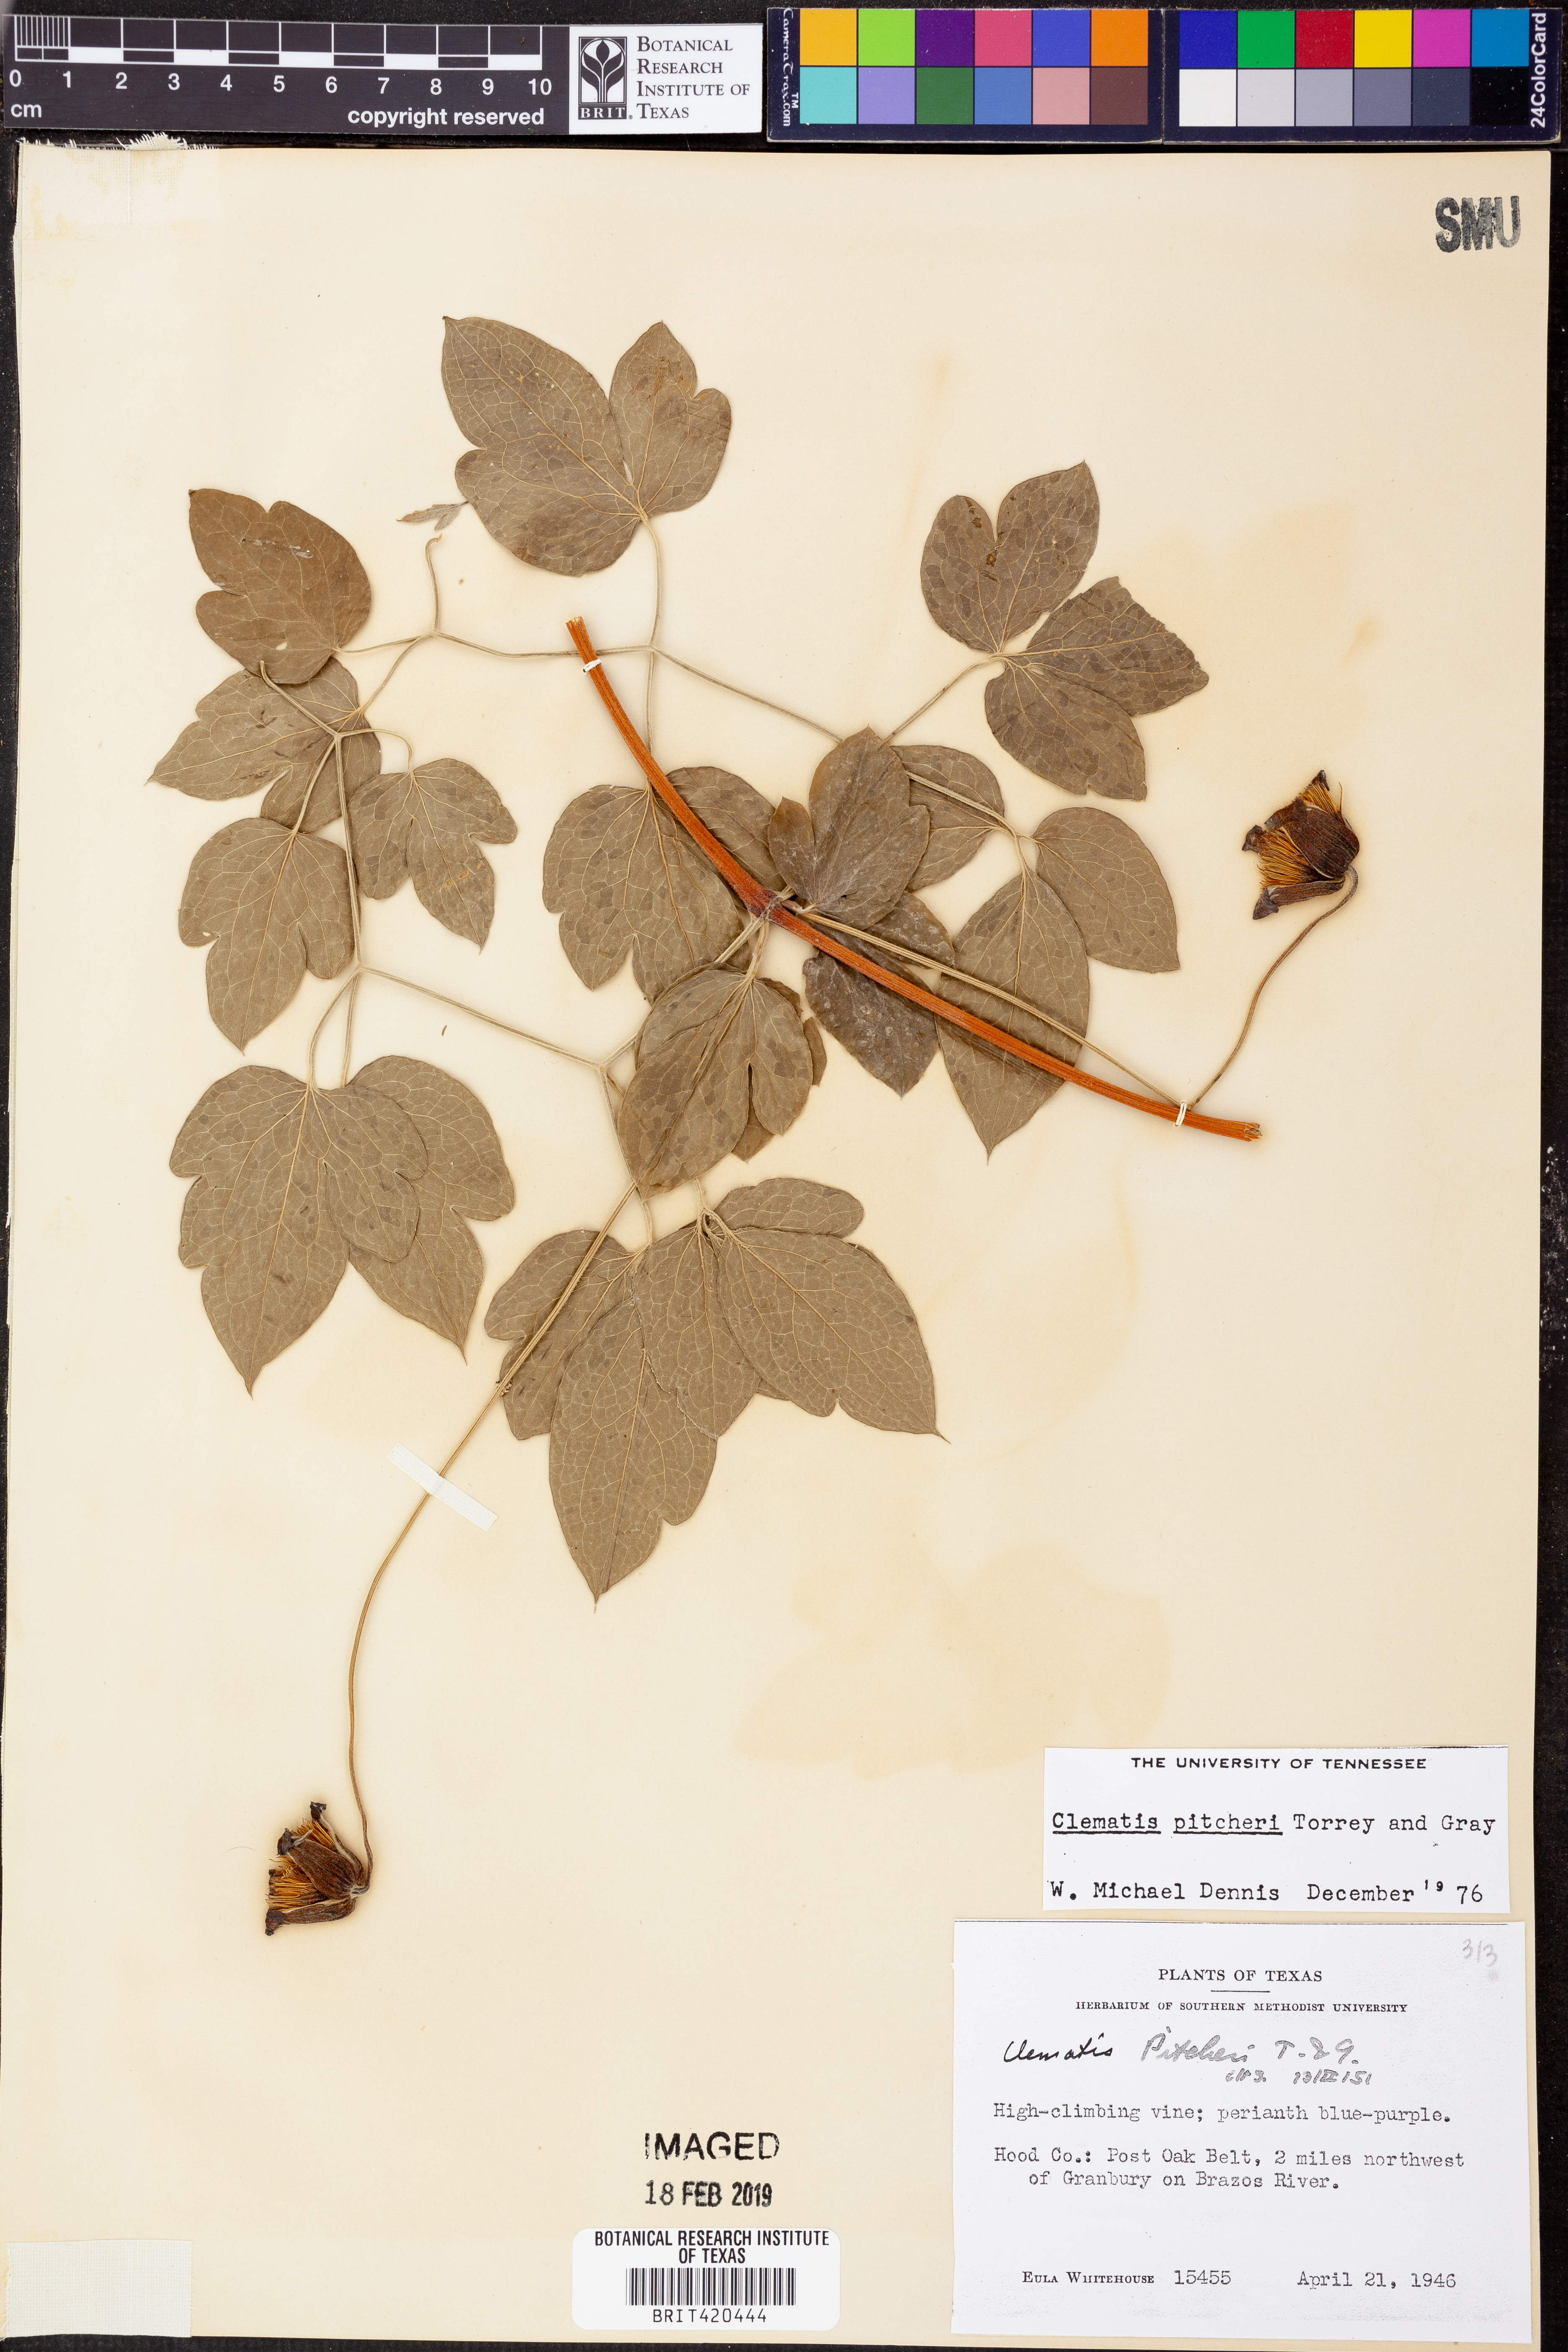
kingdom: Plantae
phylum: Tracheophyta
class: Magnoliopsida
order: Ranunculales
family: Ranunculaceae
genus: Clematis
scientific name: Clematis pitcheri
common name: Bellflower clematis
